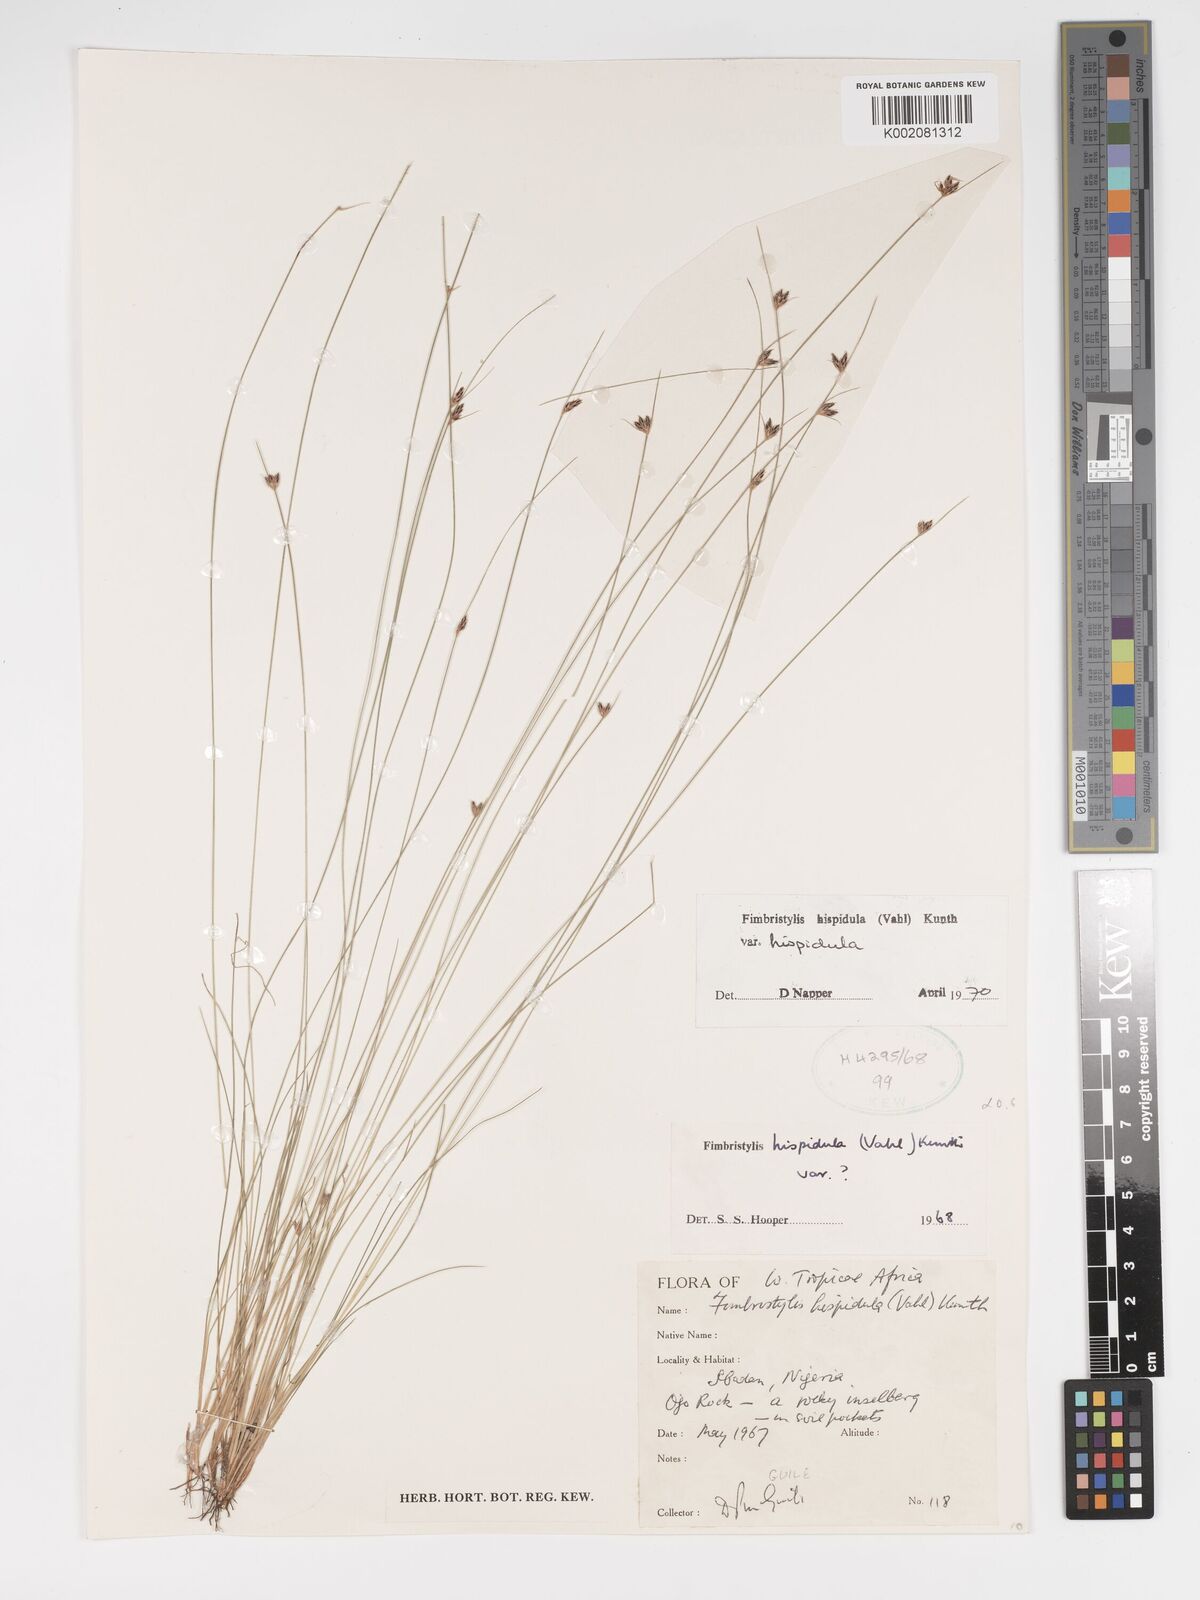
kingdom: Plantae
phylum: Tracheophyta
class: Liliopsida
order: Poales
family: Cyperaceae
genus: Bulbostylis
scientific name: Bulbostylis hispidula
